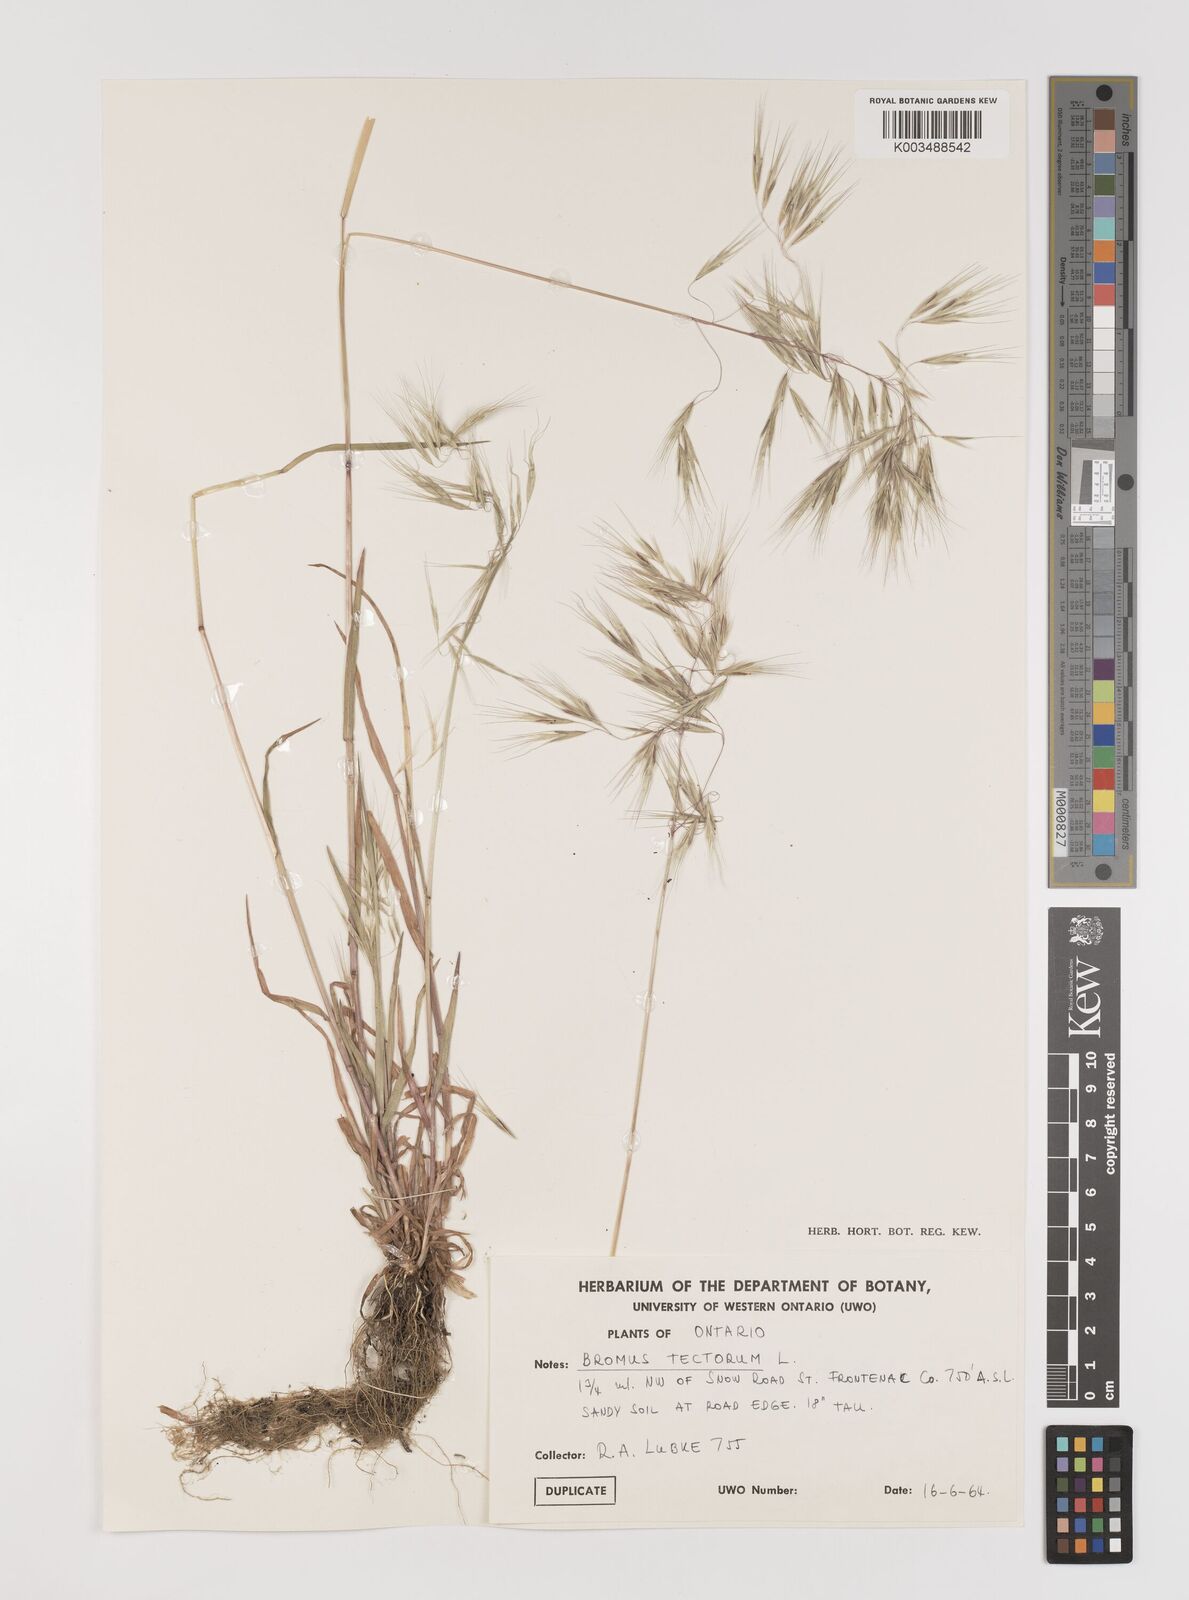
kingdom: Plantae
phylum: Tracheophyta
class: Liliopsida
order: Poales
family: Poaceae
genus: Bromus
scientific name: Bromus tectorum
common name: Cheatgrass
